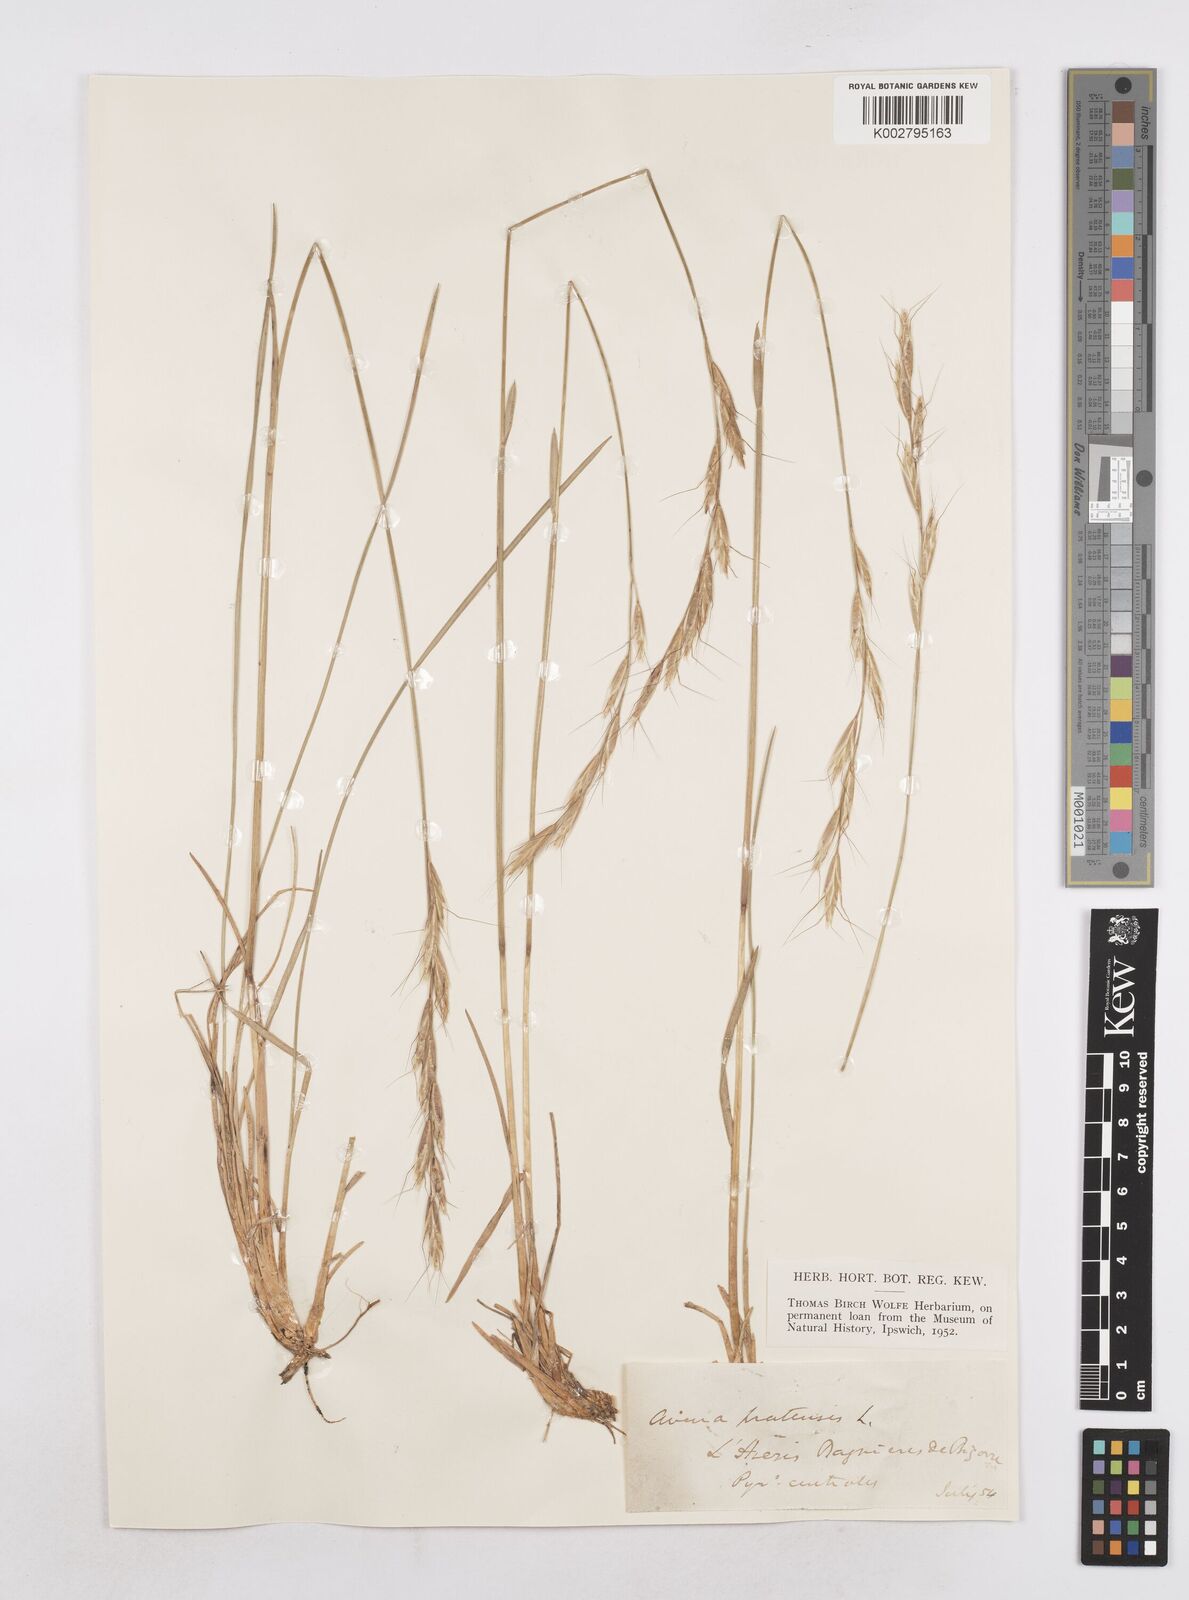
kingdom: Plantae
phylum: Tracheophyta
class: Liliopsida
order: Poales
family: Poaceae
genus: Helictochloa
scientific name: Helictochloa pratensis
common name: Meadow oat grass
